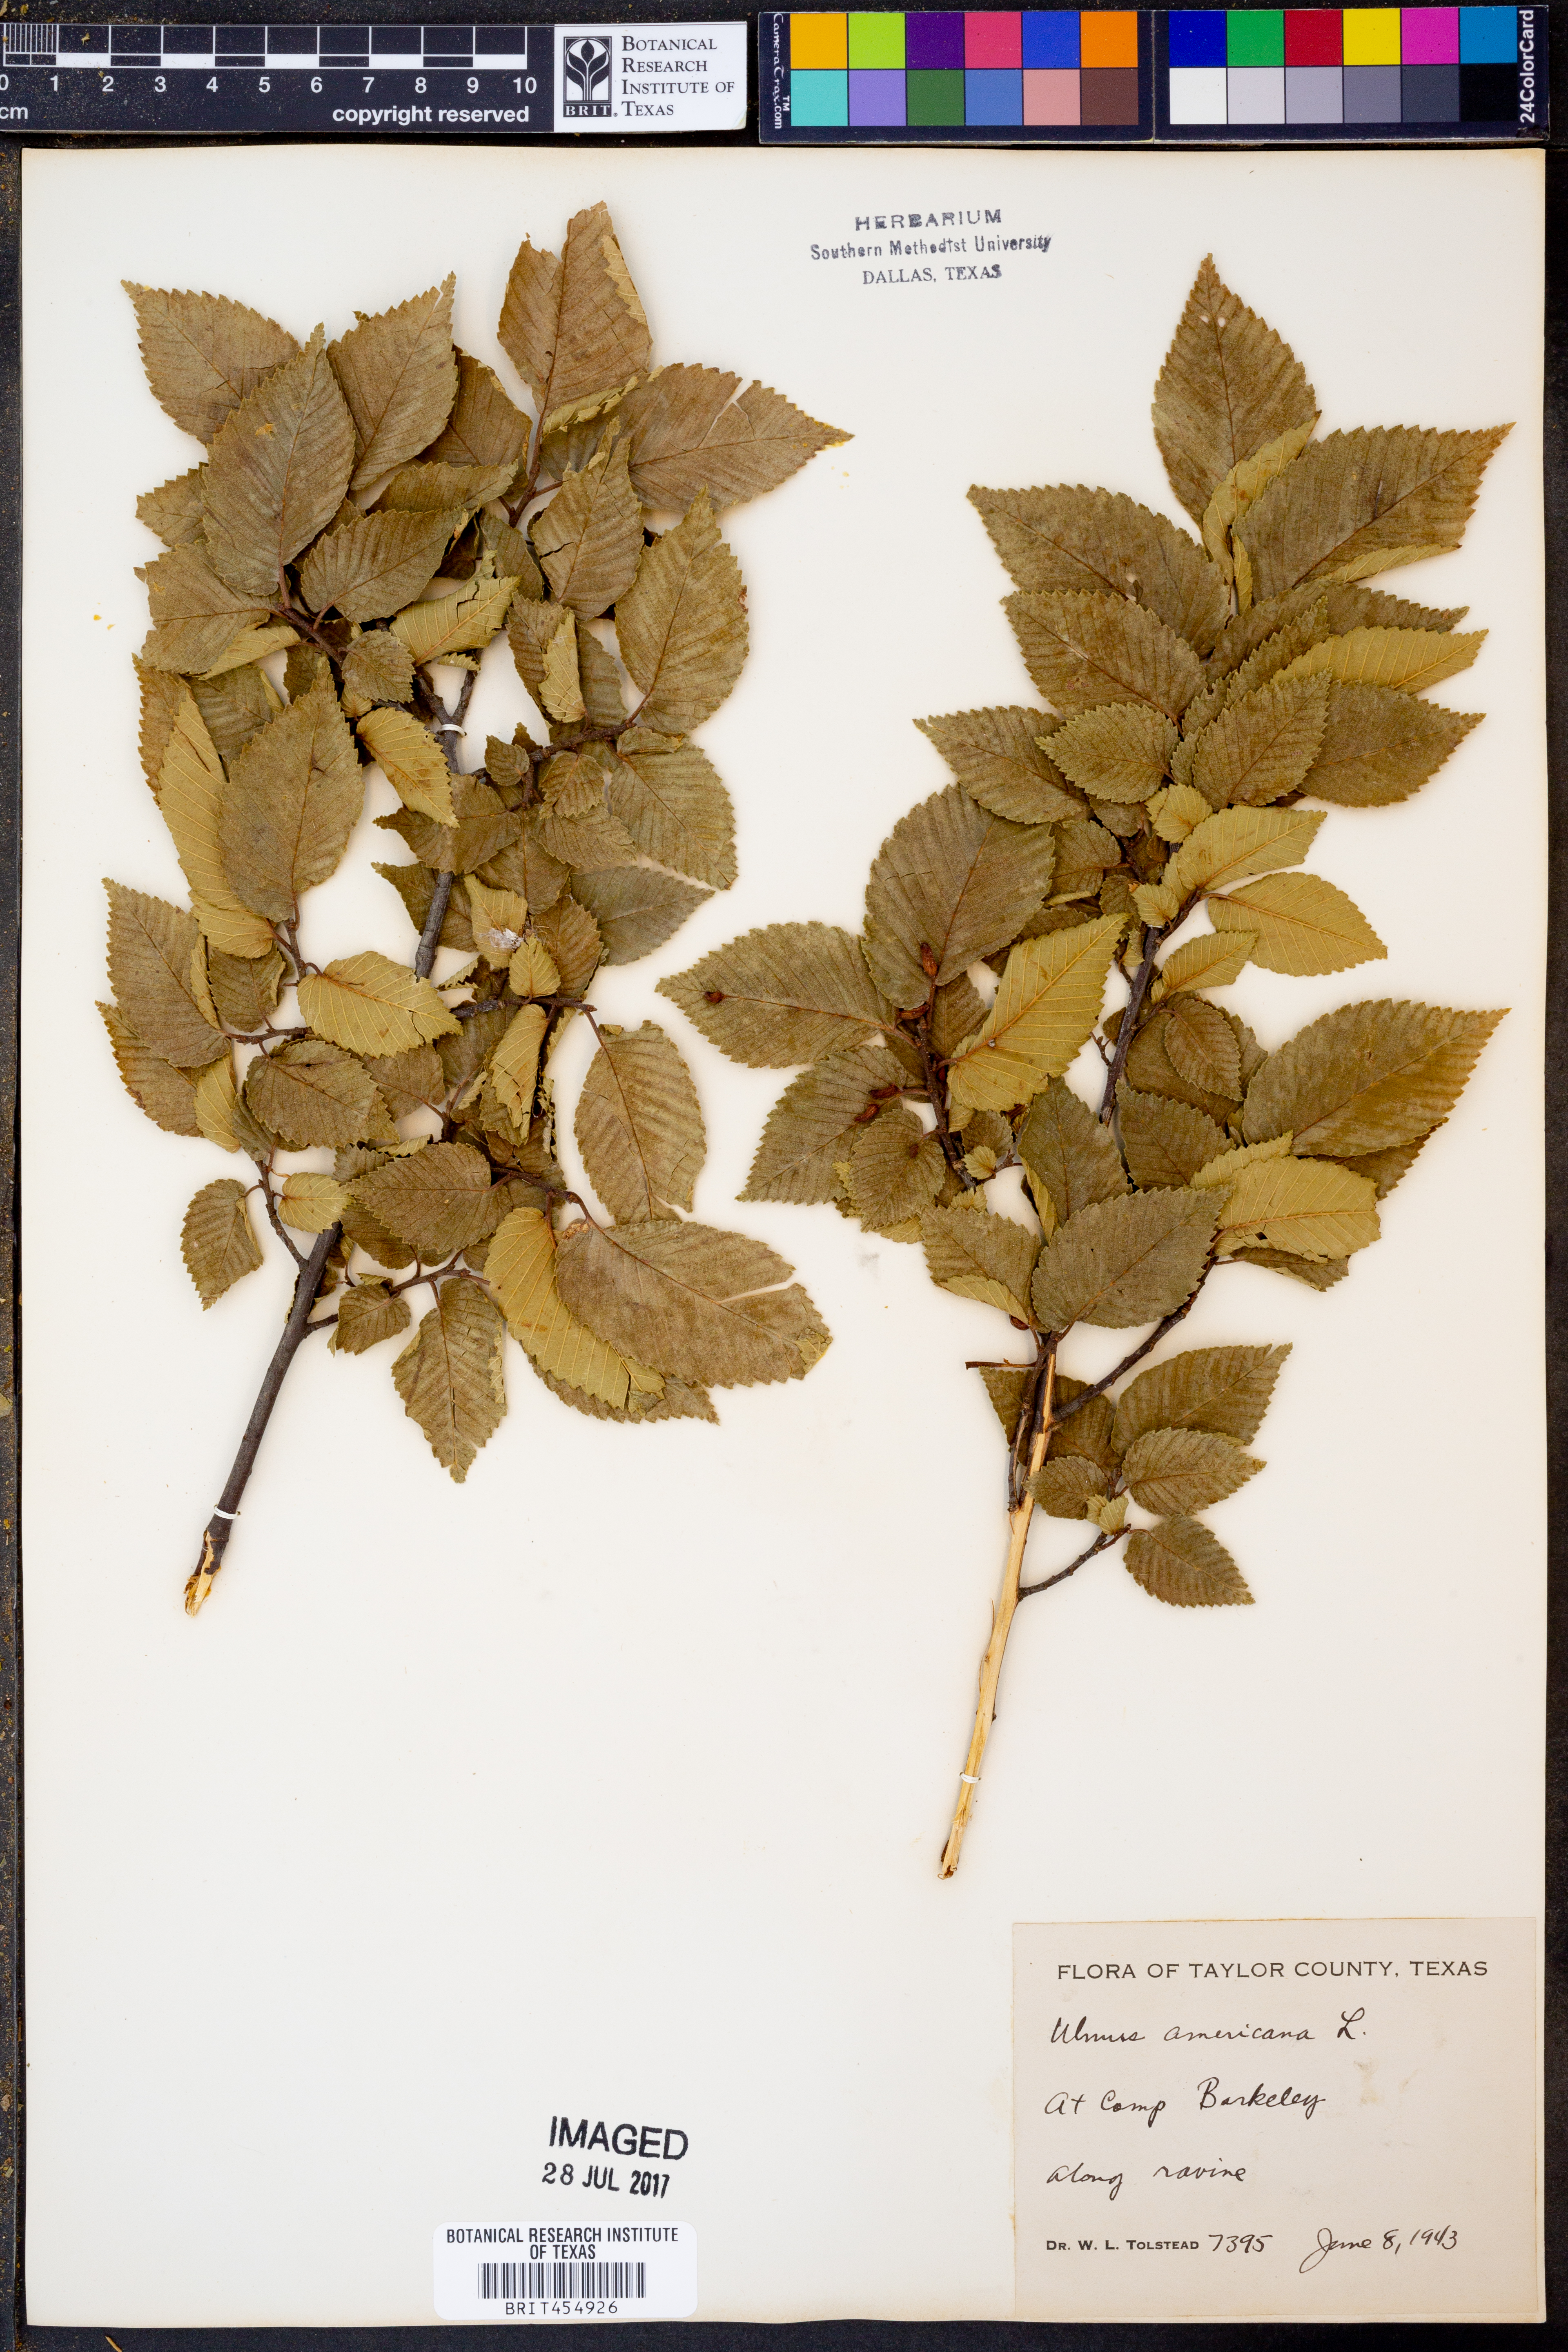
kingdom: Plantae
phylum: Tracheophyta
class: Magnoliopsida
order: Rosales
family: Ulmaceae
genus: Ulmus
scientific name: Ulmus americana
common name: American elm
